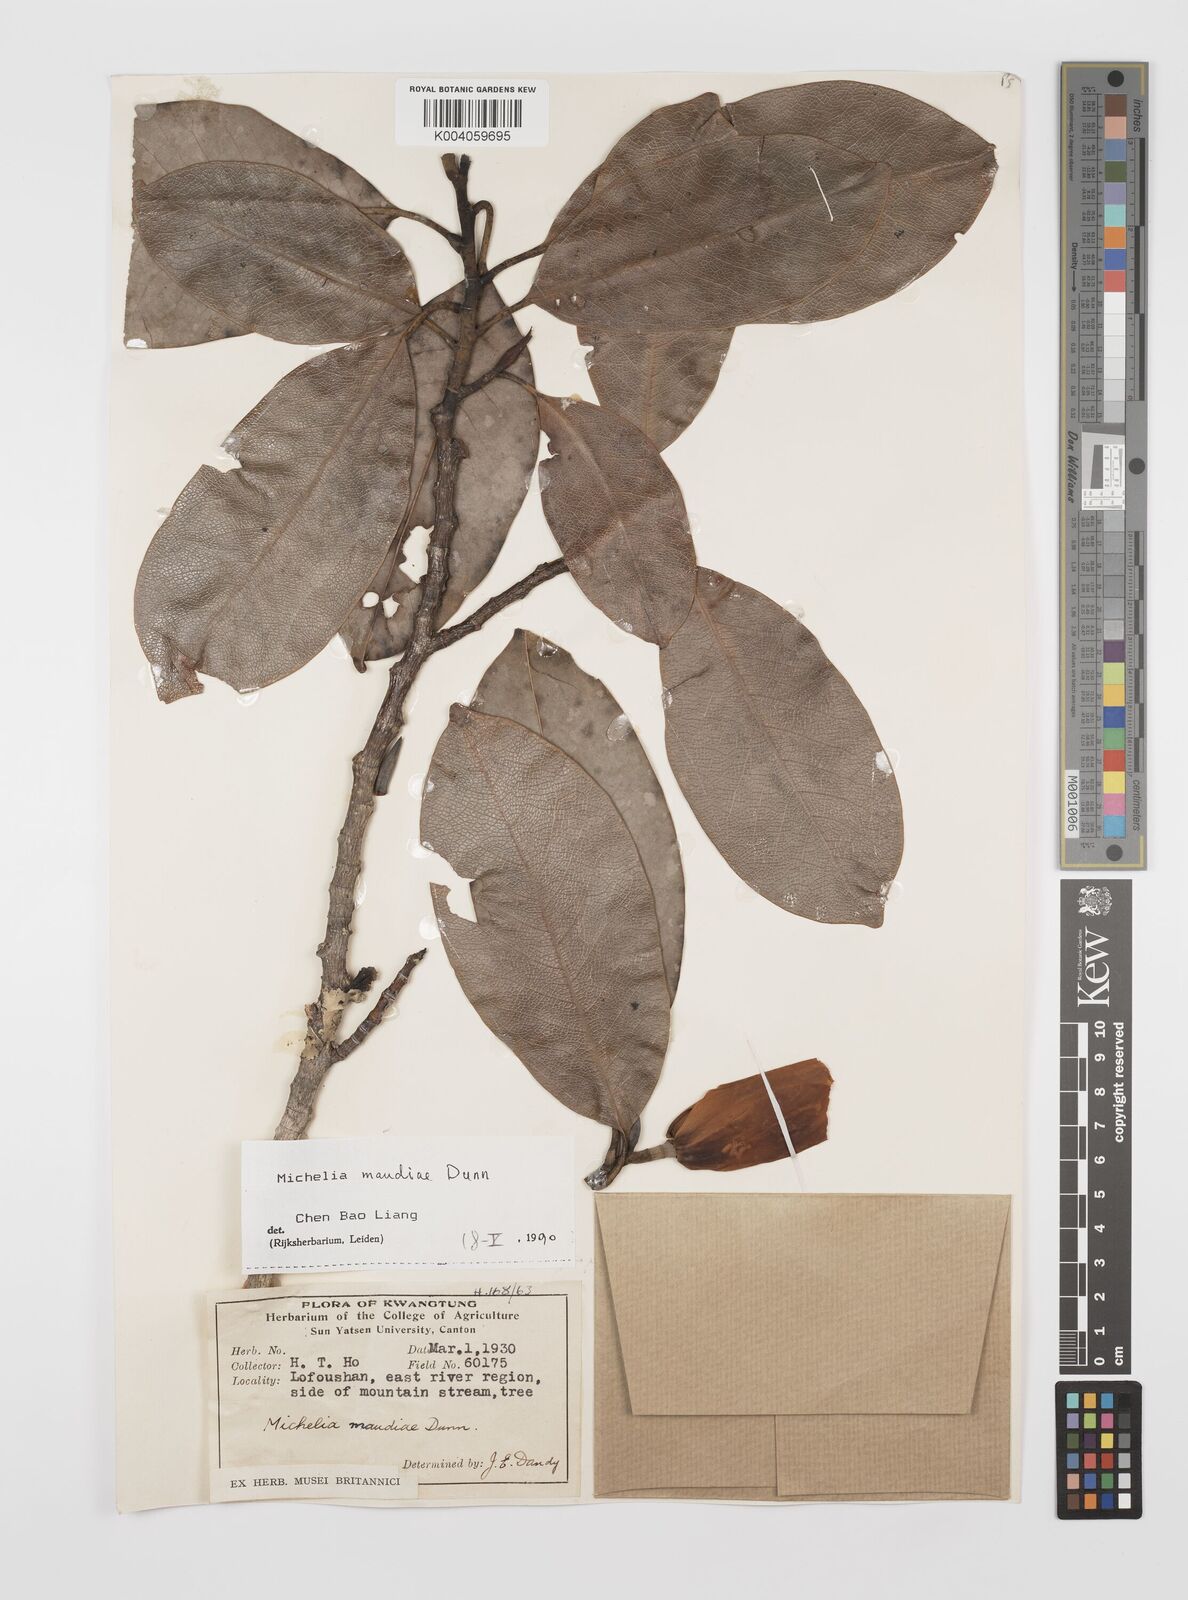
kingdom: Plantae
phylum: Tracheophyta
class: Magnoliopsida
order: Magnoliales
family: Magnoliaceae
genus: Magnolia
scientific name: Magnolia maudiae
